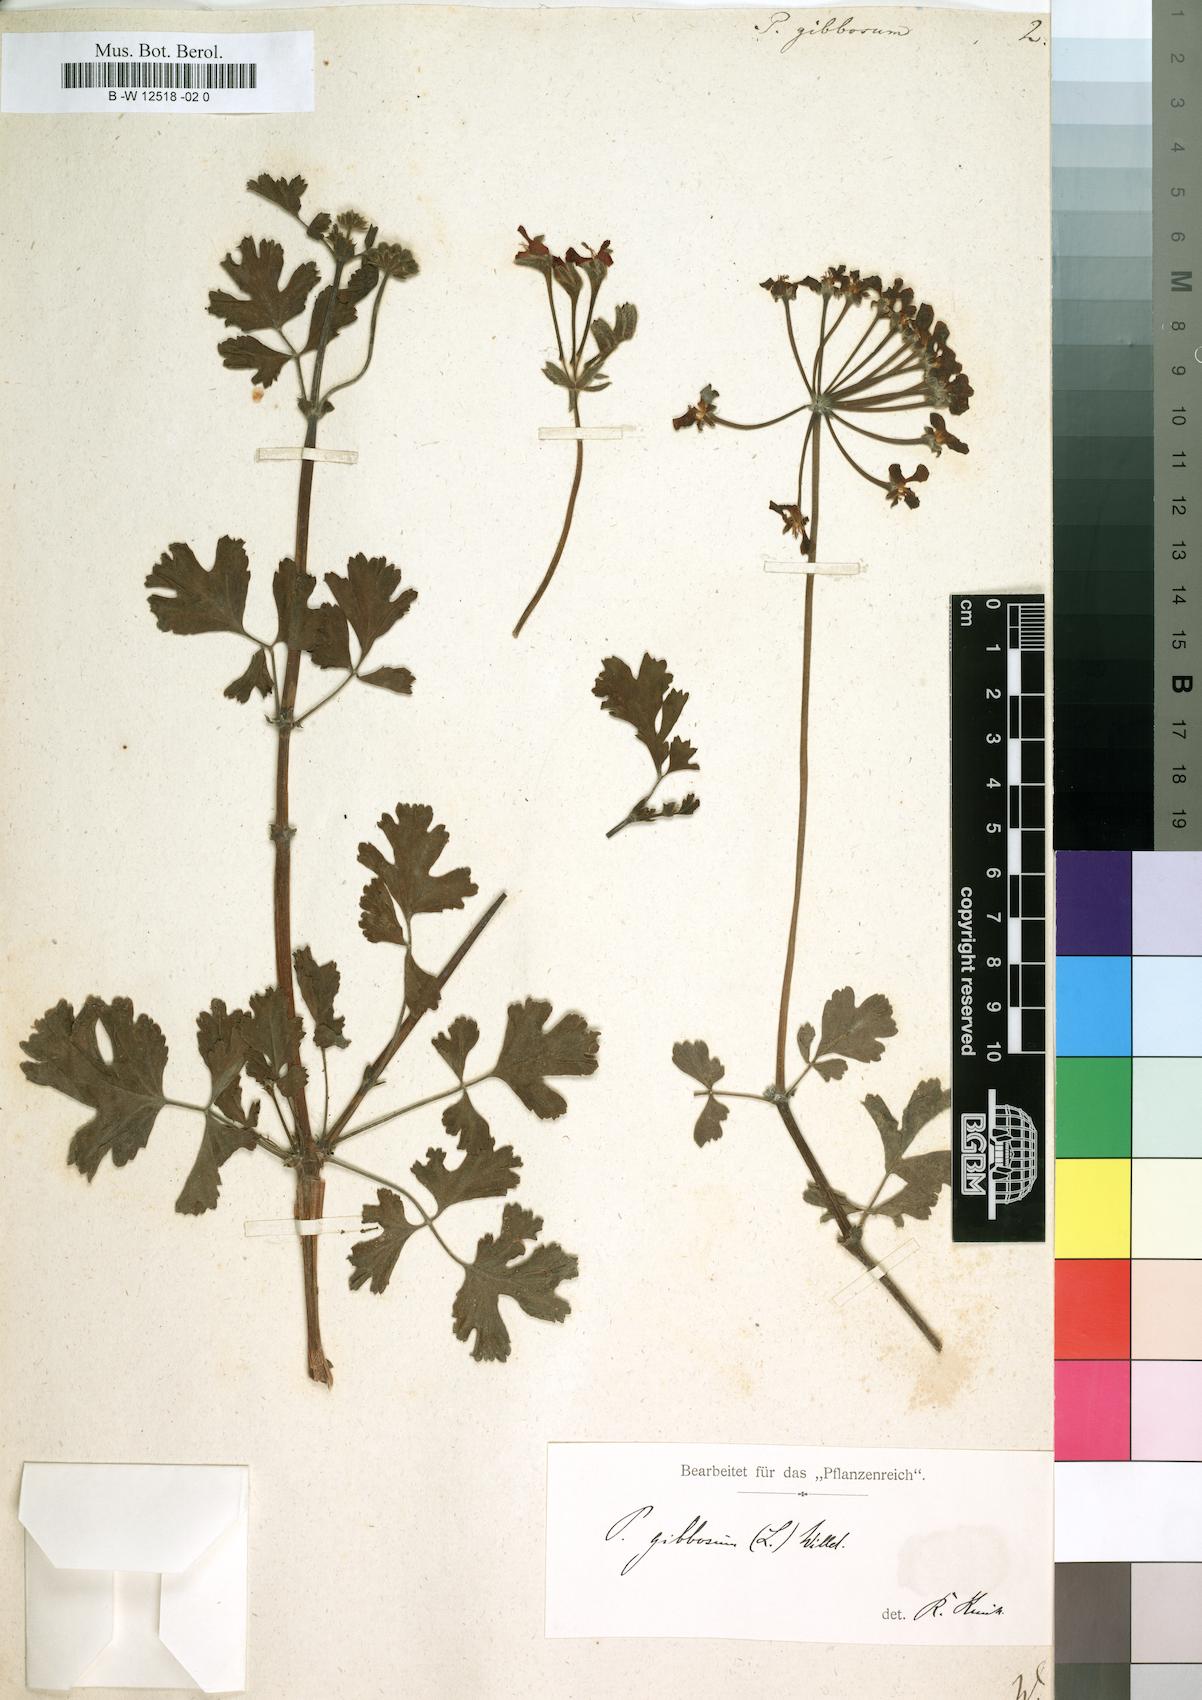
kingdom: Plantae
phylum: Tracheophyta
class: Magnoliopsida
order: Geraniales
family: Geraniaceae
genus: Pelargonium
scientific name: Pelargonium gibbosum
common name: Gouty geranium
